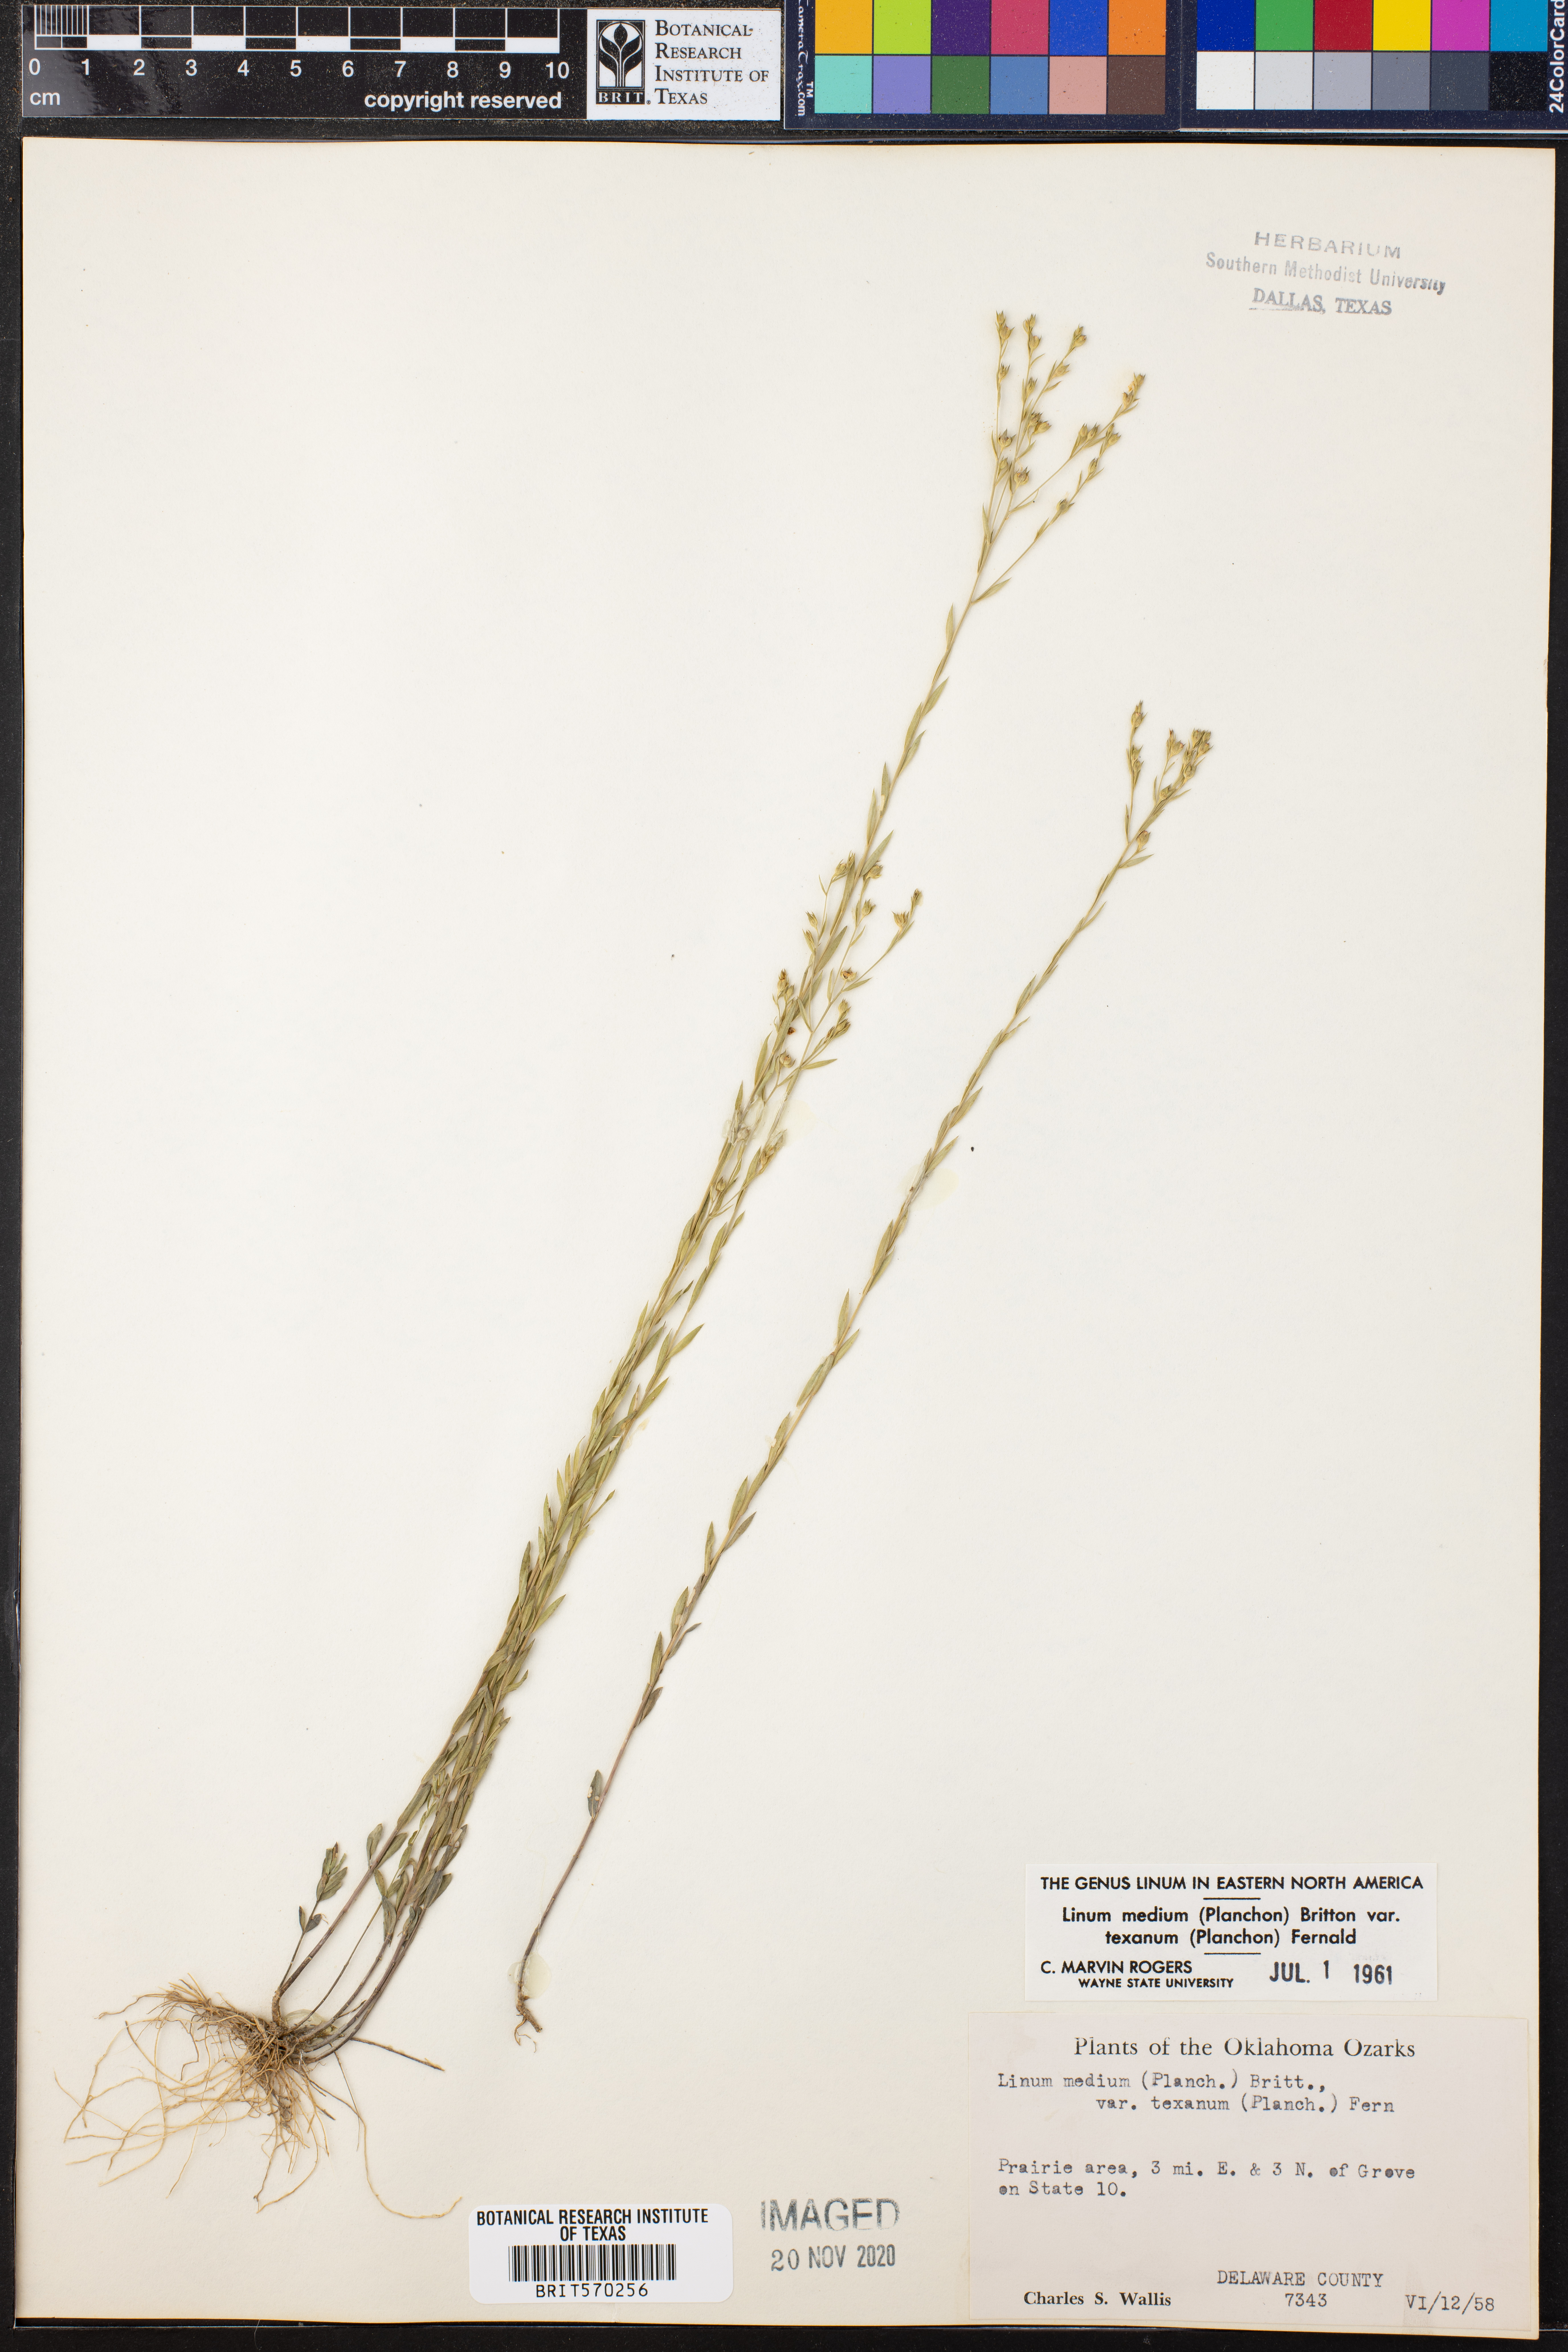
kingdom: Plantae
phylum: Tracheophyta
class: Magnoliopsida
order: Malpighiales
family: Linaceae
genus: Linum
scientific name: Linum medium
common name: Stiff yellow flax
